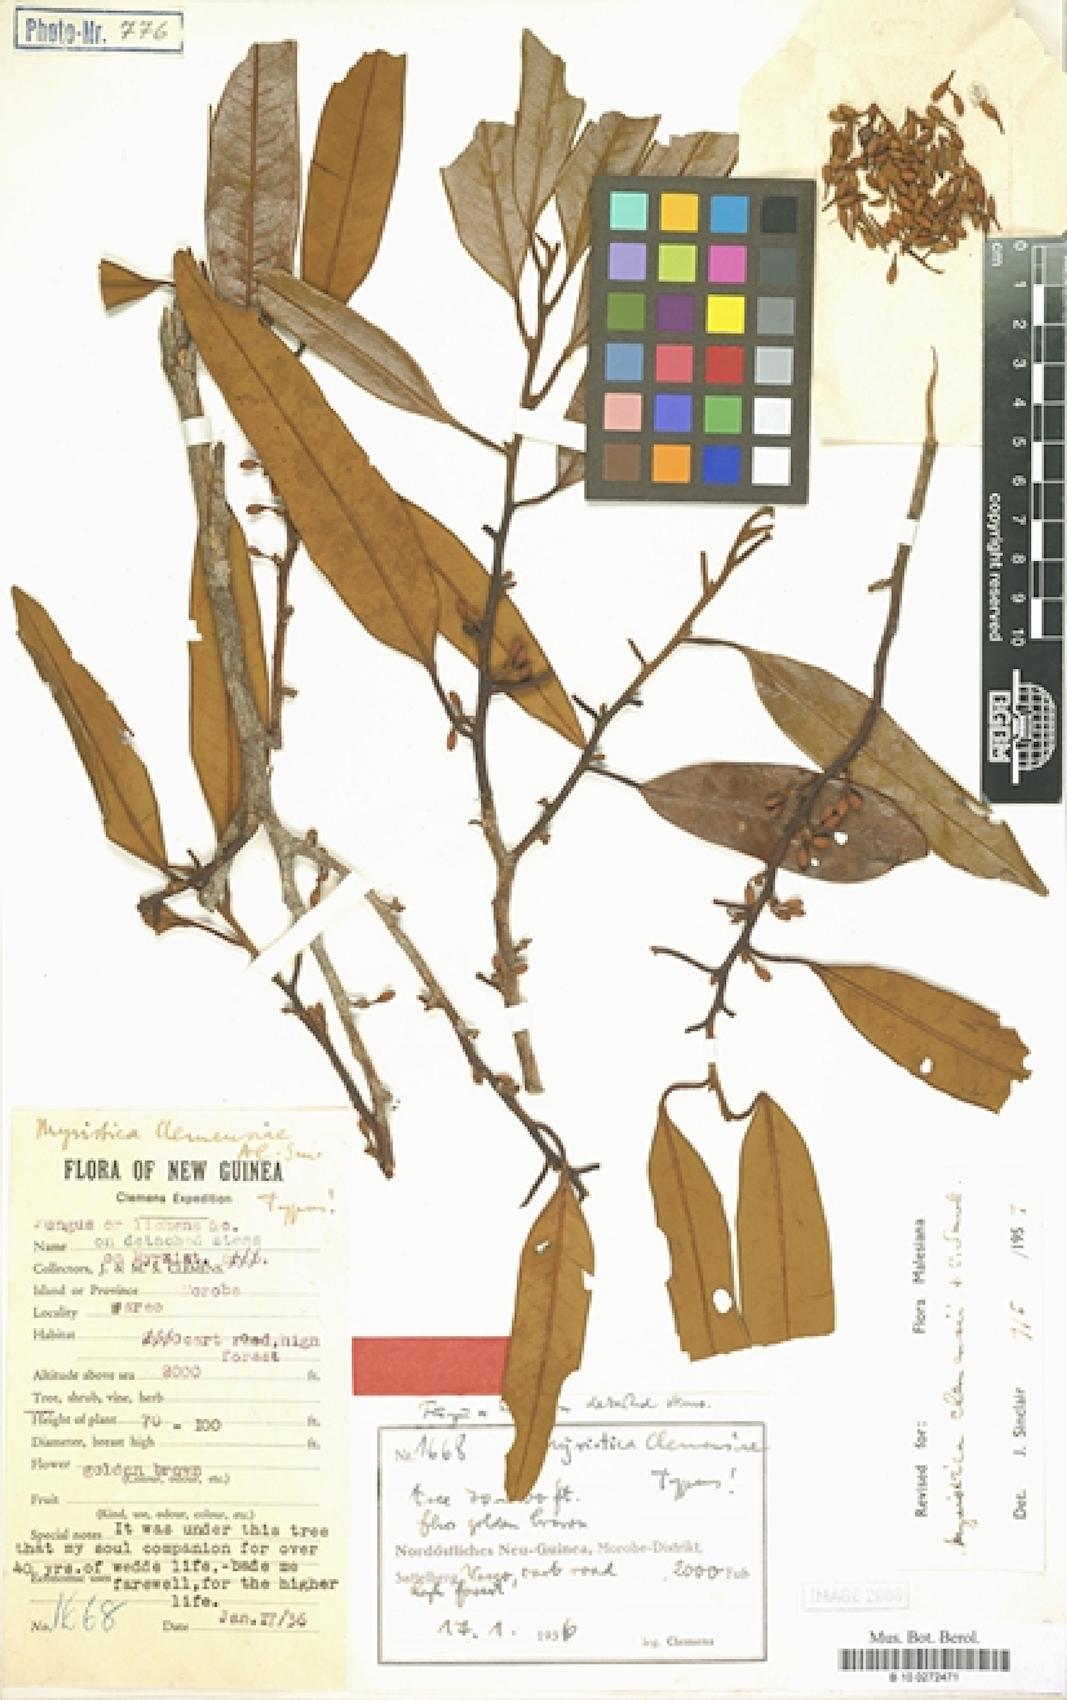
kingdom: Plantae
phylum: Tracheophyta
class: Magnoliopsida
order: Magnoliales
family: Myristicaceae
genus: Myristica
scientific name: Myristica clemensii
